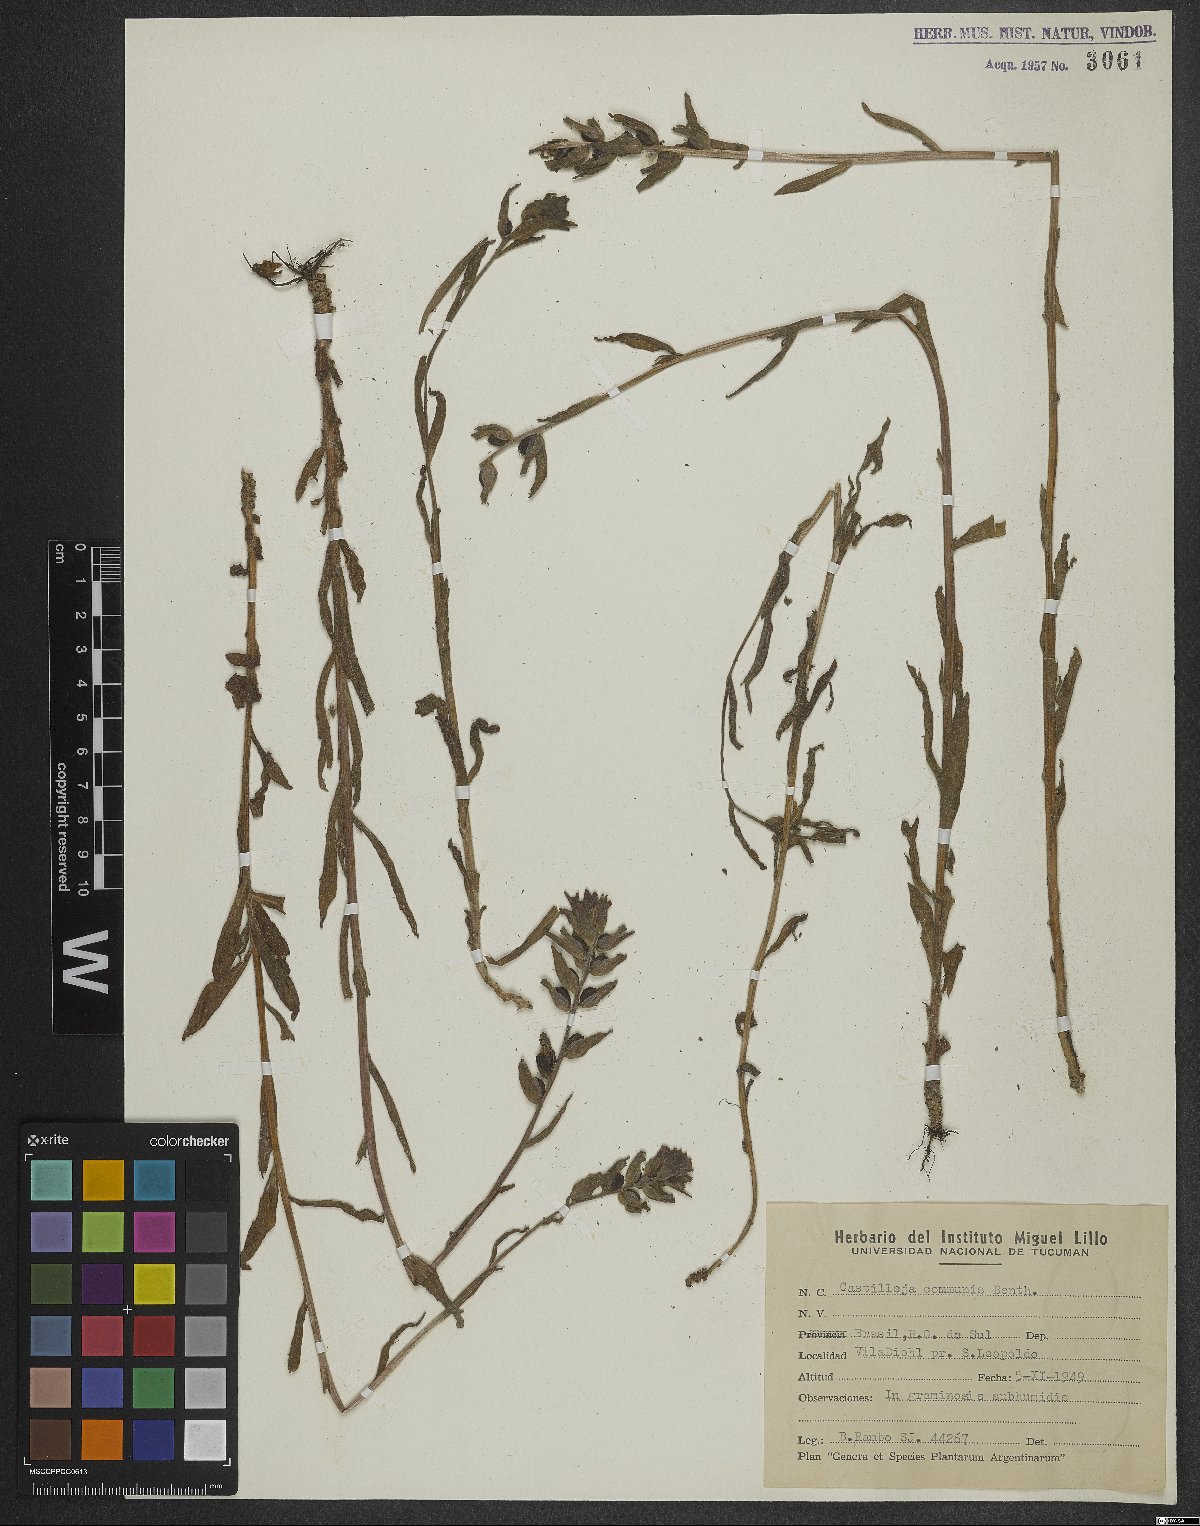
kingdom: Plantae
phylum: Tracheophyta
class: Magnoliopsida
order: Lamiales
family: Orobanchaceae
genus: Castilleja
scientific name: Castilleja arvensis
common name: Indian paintbrush
